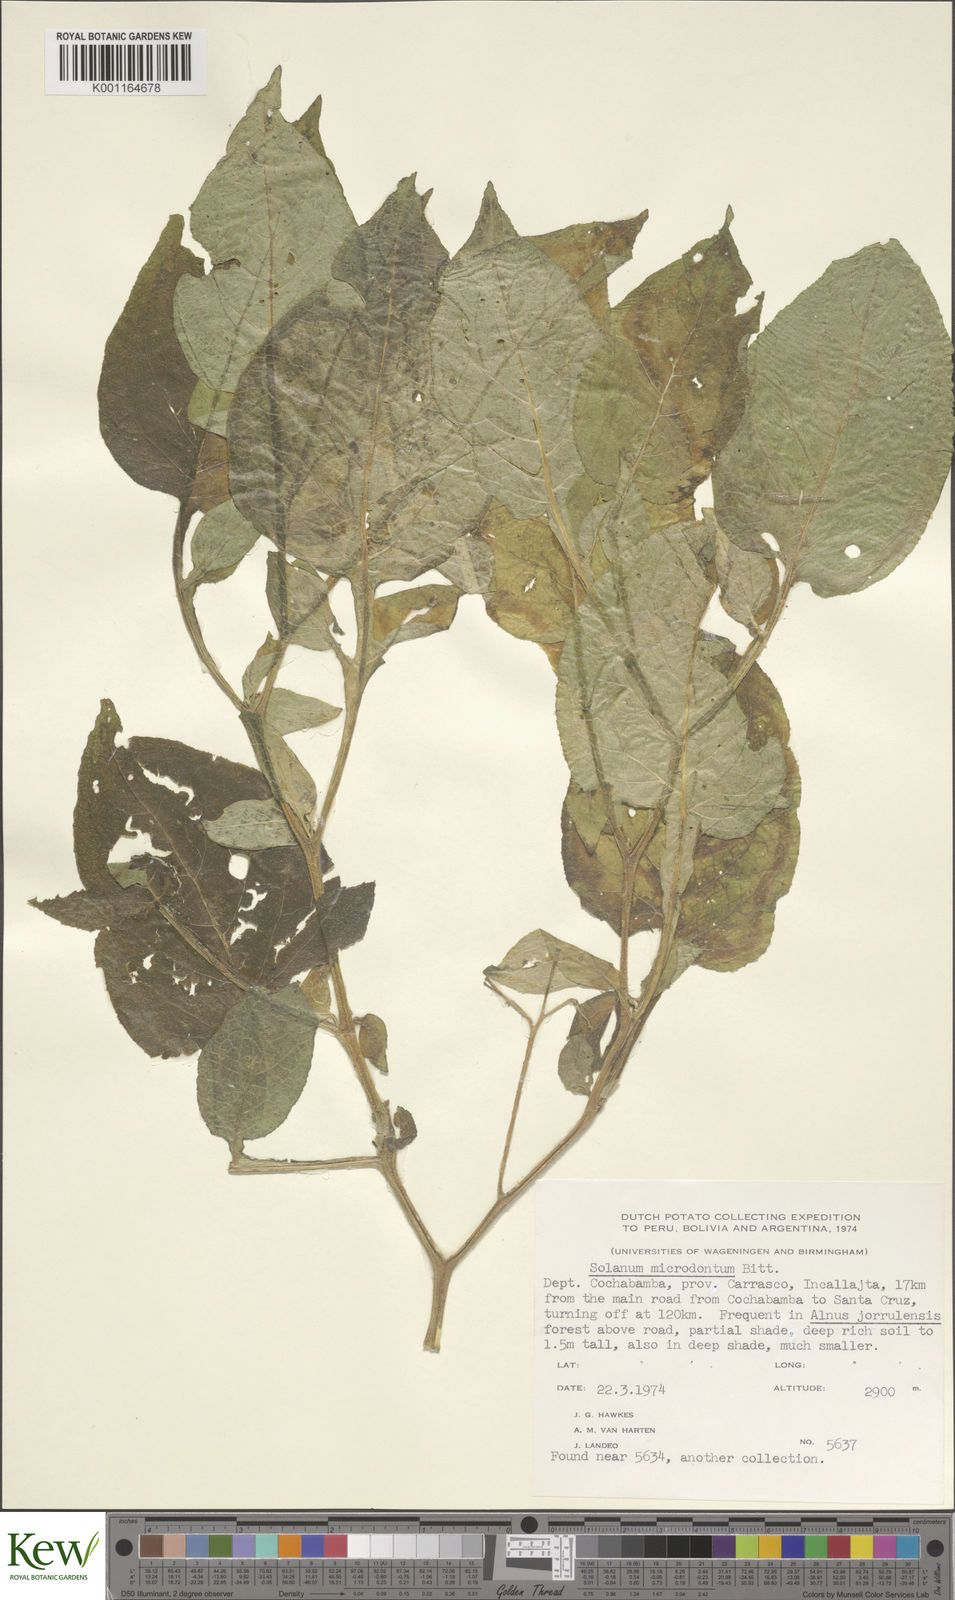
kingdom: Plantae
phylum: Tracheophyta
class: Magnoliopsida
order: Solanales
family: Solanaceae
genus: Solanum
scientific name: Solanum microdontum
